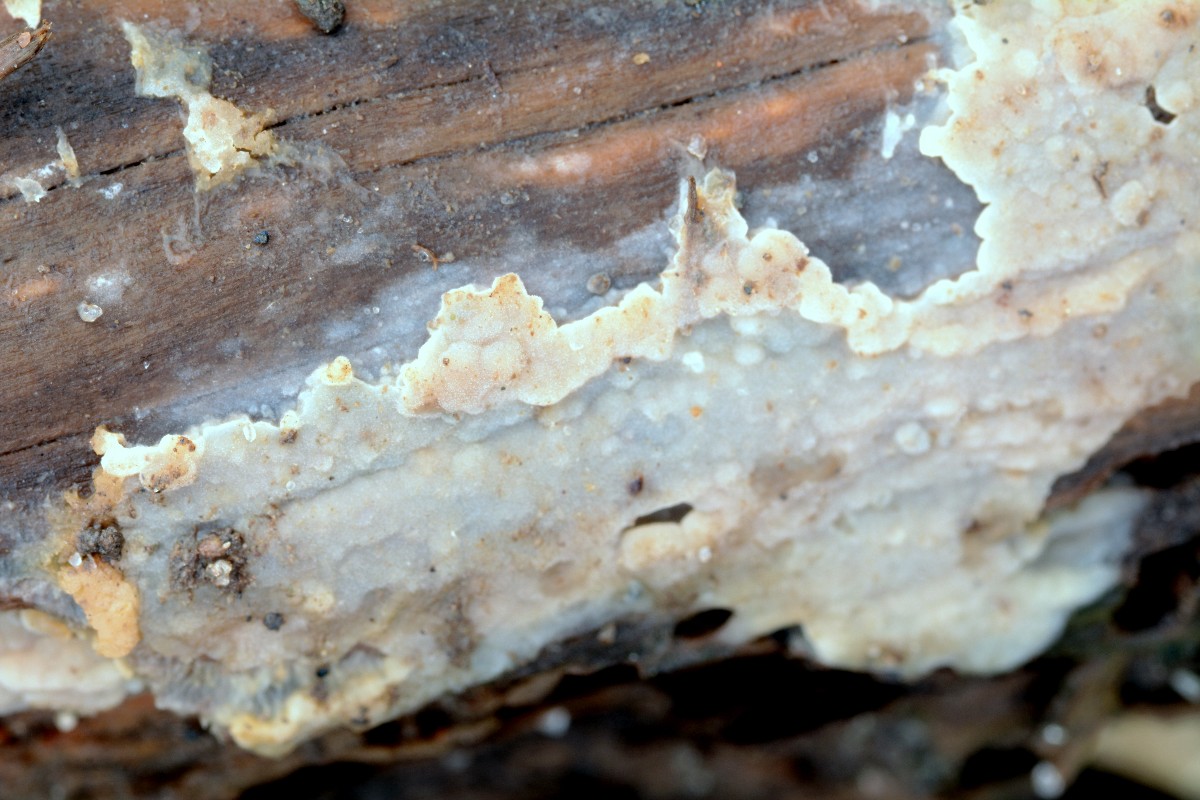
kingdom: Fungi
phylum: Basidiomycota
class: Agaricomycetes
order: Agaricales
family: Radulomycetaceae
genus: Radulomyces
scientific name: Radulomyces confluens
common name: glat naftalinskind
